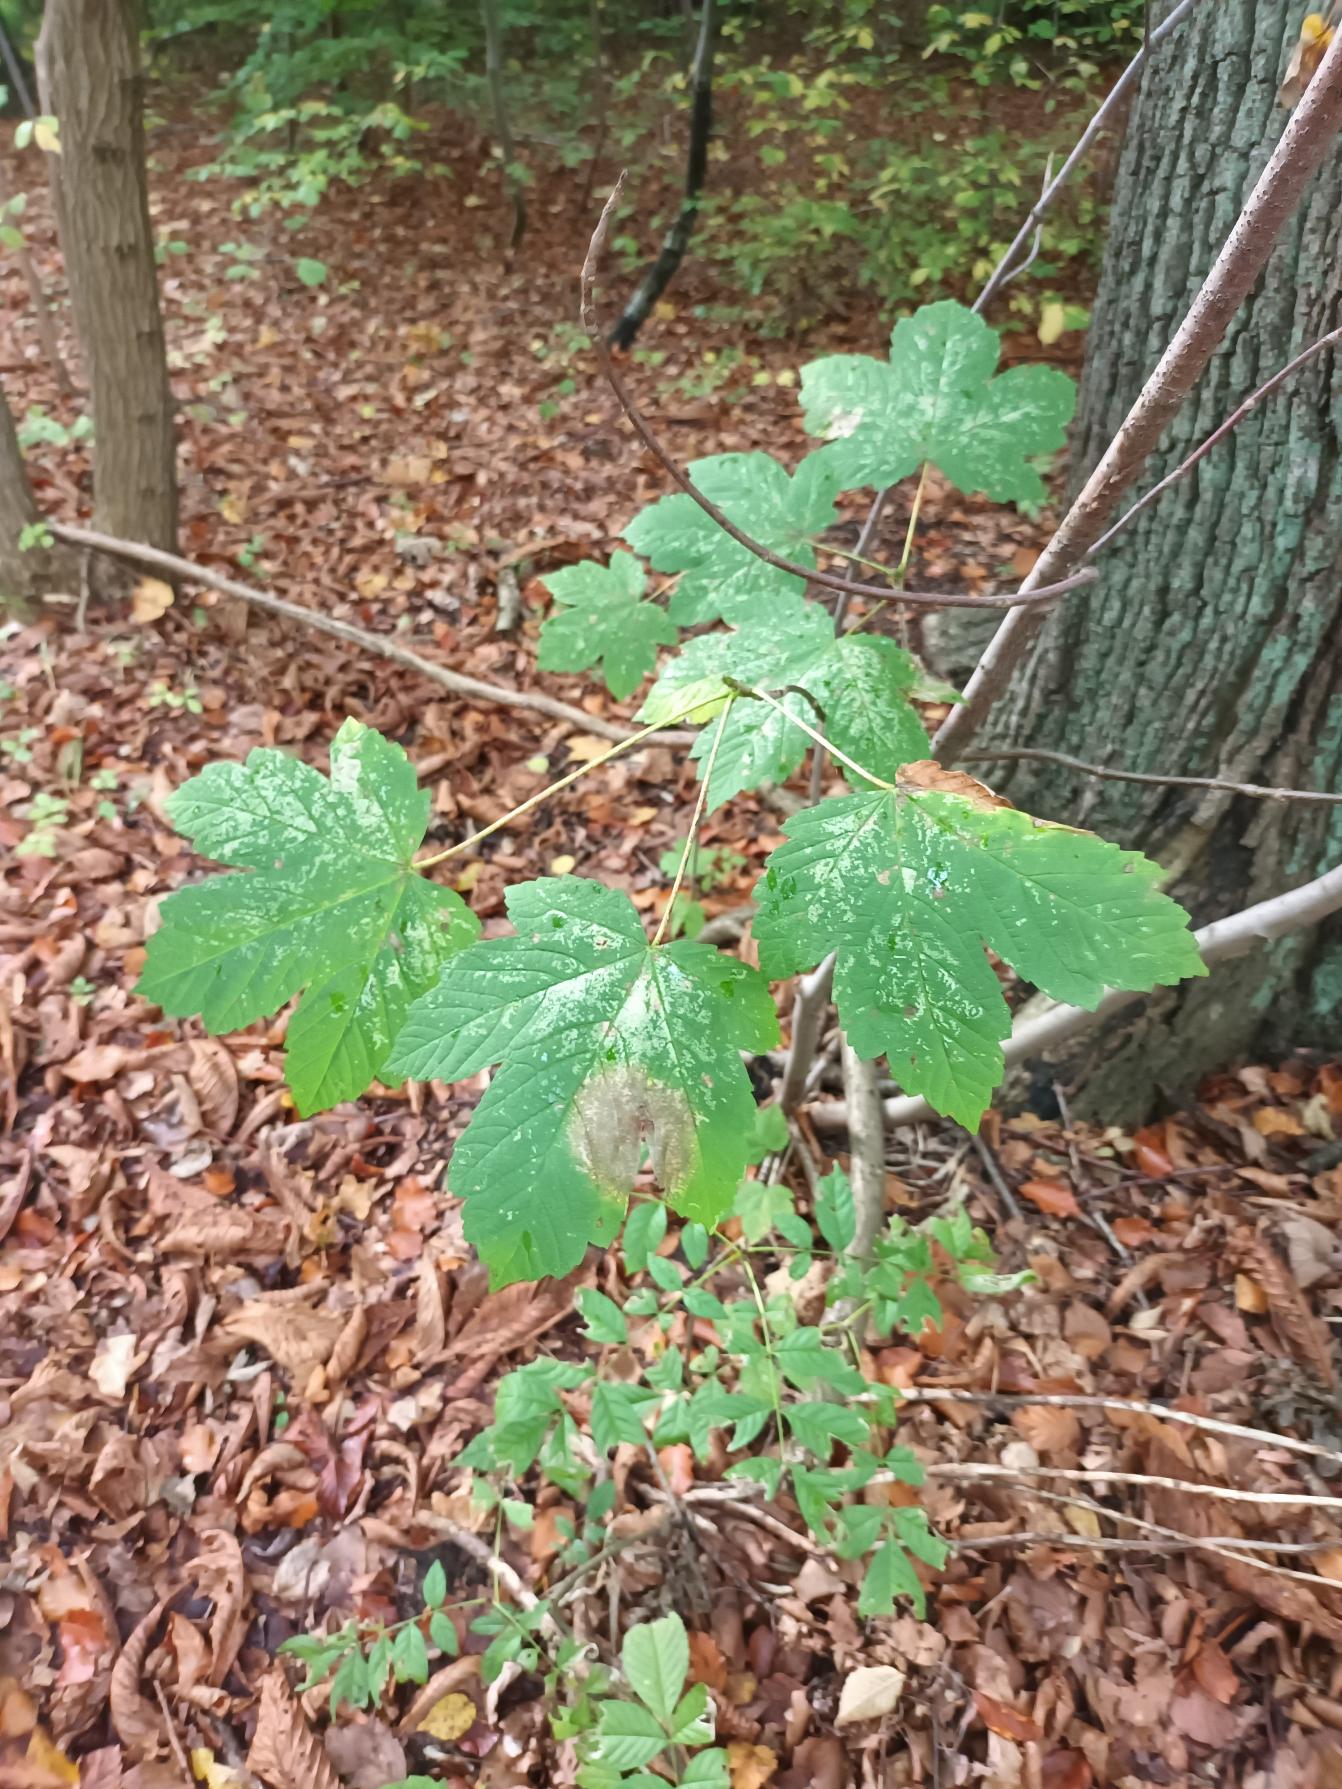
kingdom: Plantae
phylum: Tracheophyta
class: Magnoliopsida
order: Sapindales
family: Sapindaceae
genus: Acer
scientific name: Acer pseudoplatanus
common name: Ahorn
